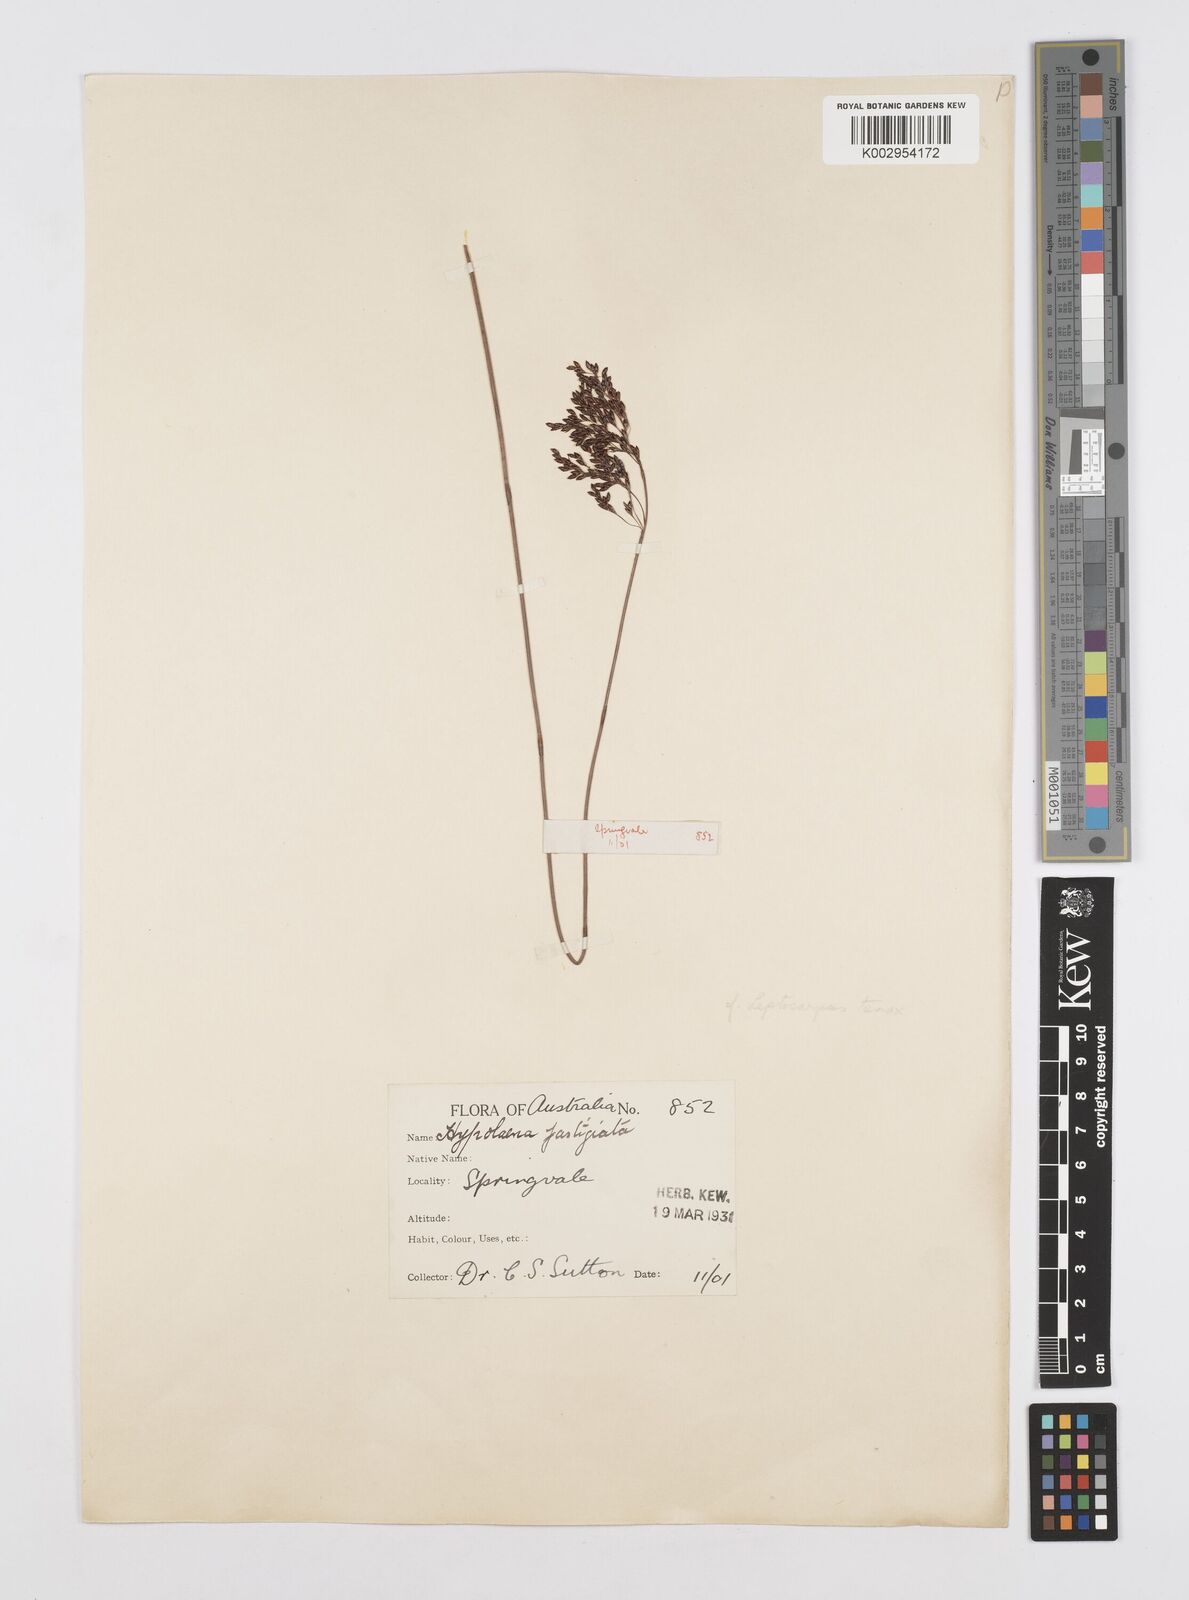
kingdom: Plantae
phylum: Tracheophyta
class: Liliopsida
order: Poales
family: Restionaceae
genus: Leptocarpus
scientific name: Leptocarpus tenax
